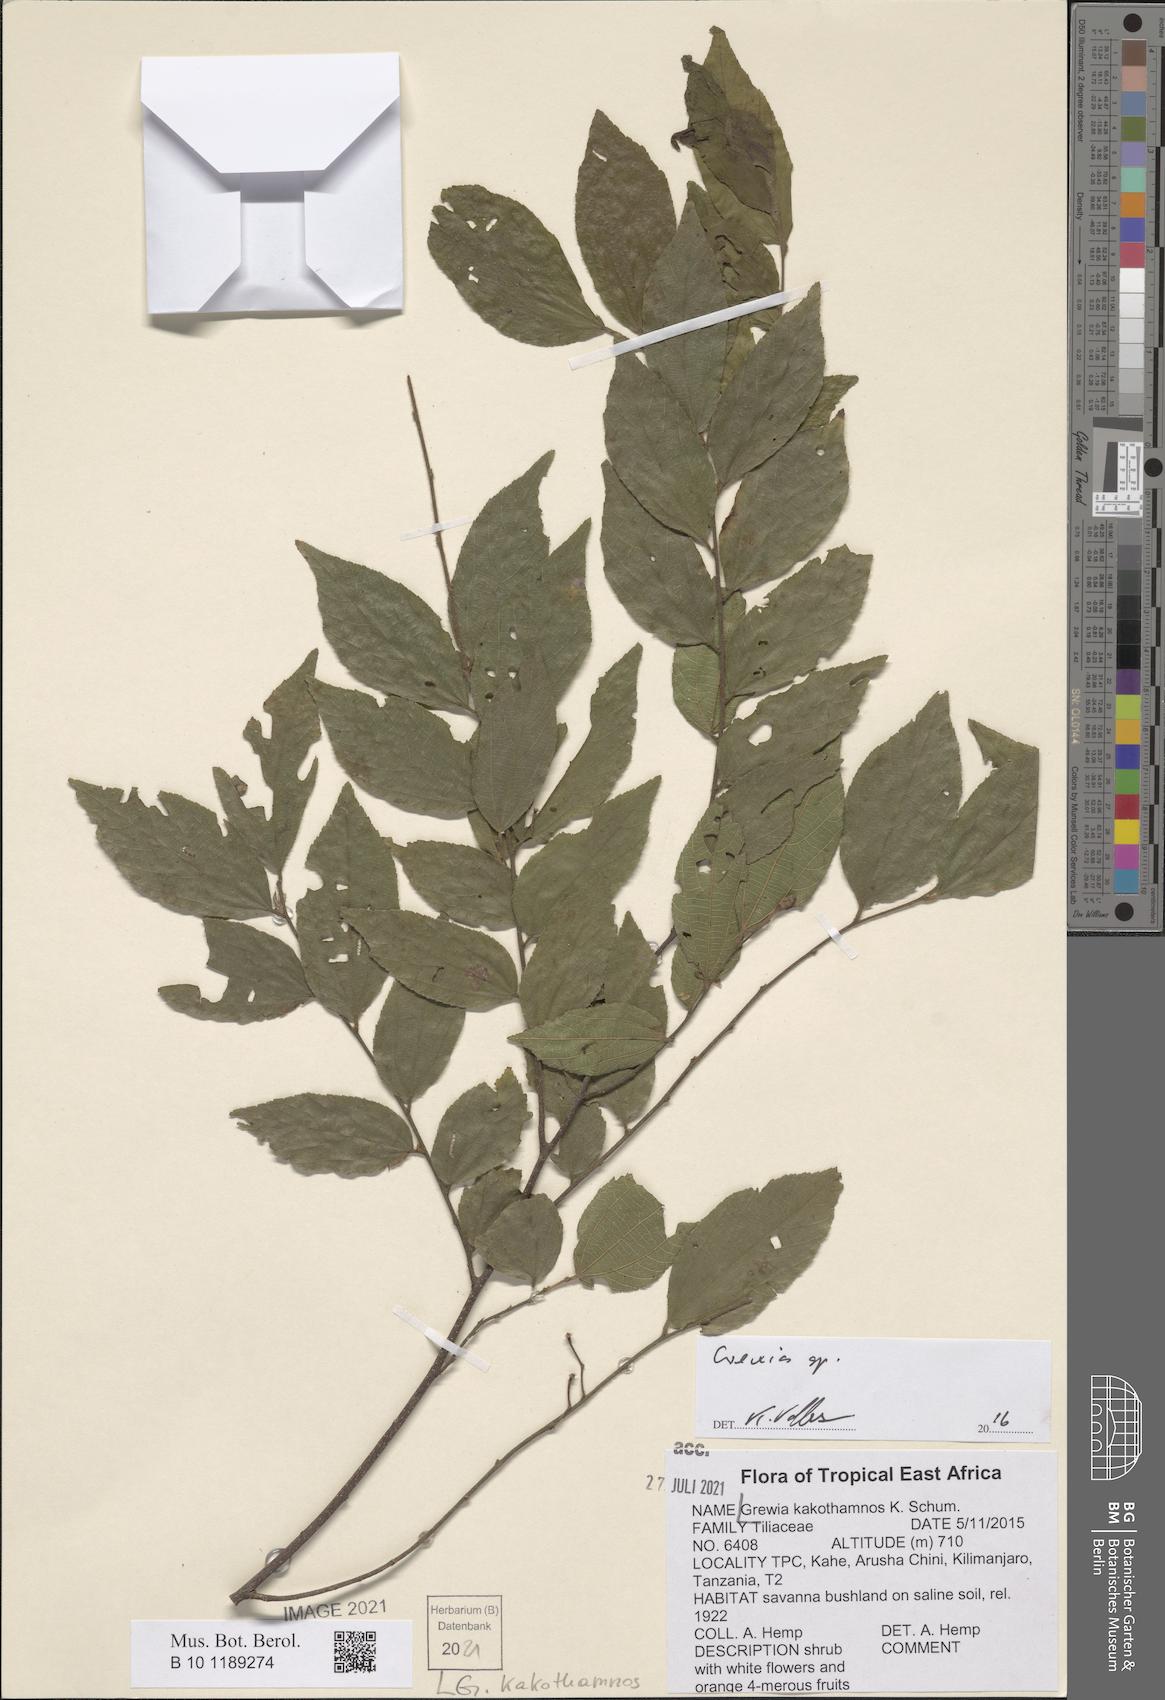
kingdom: Plantae
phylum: Tracheophyta
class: Magnoliopsida
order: Malvales
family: Malvaceae
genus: Grewia
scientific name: Grewia kakothamnos
